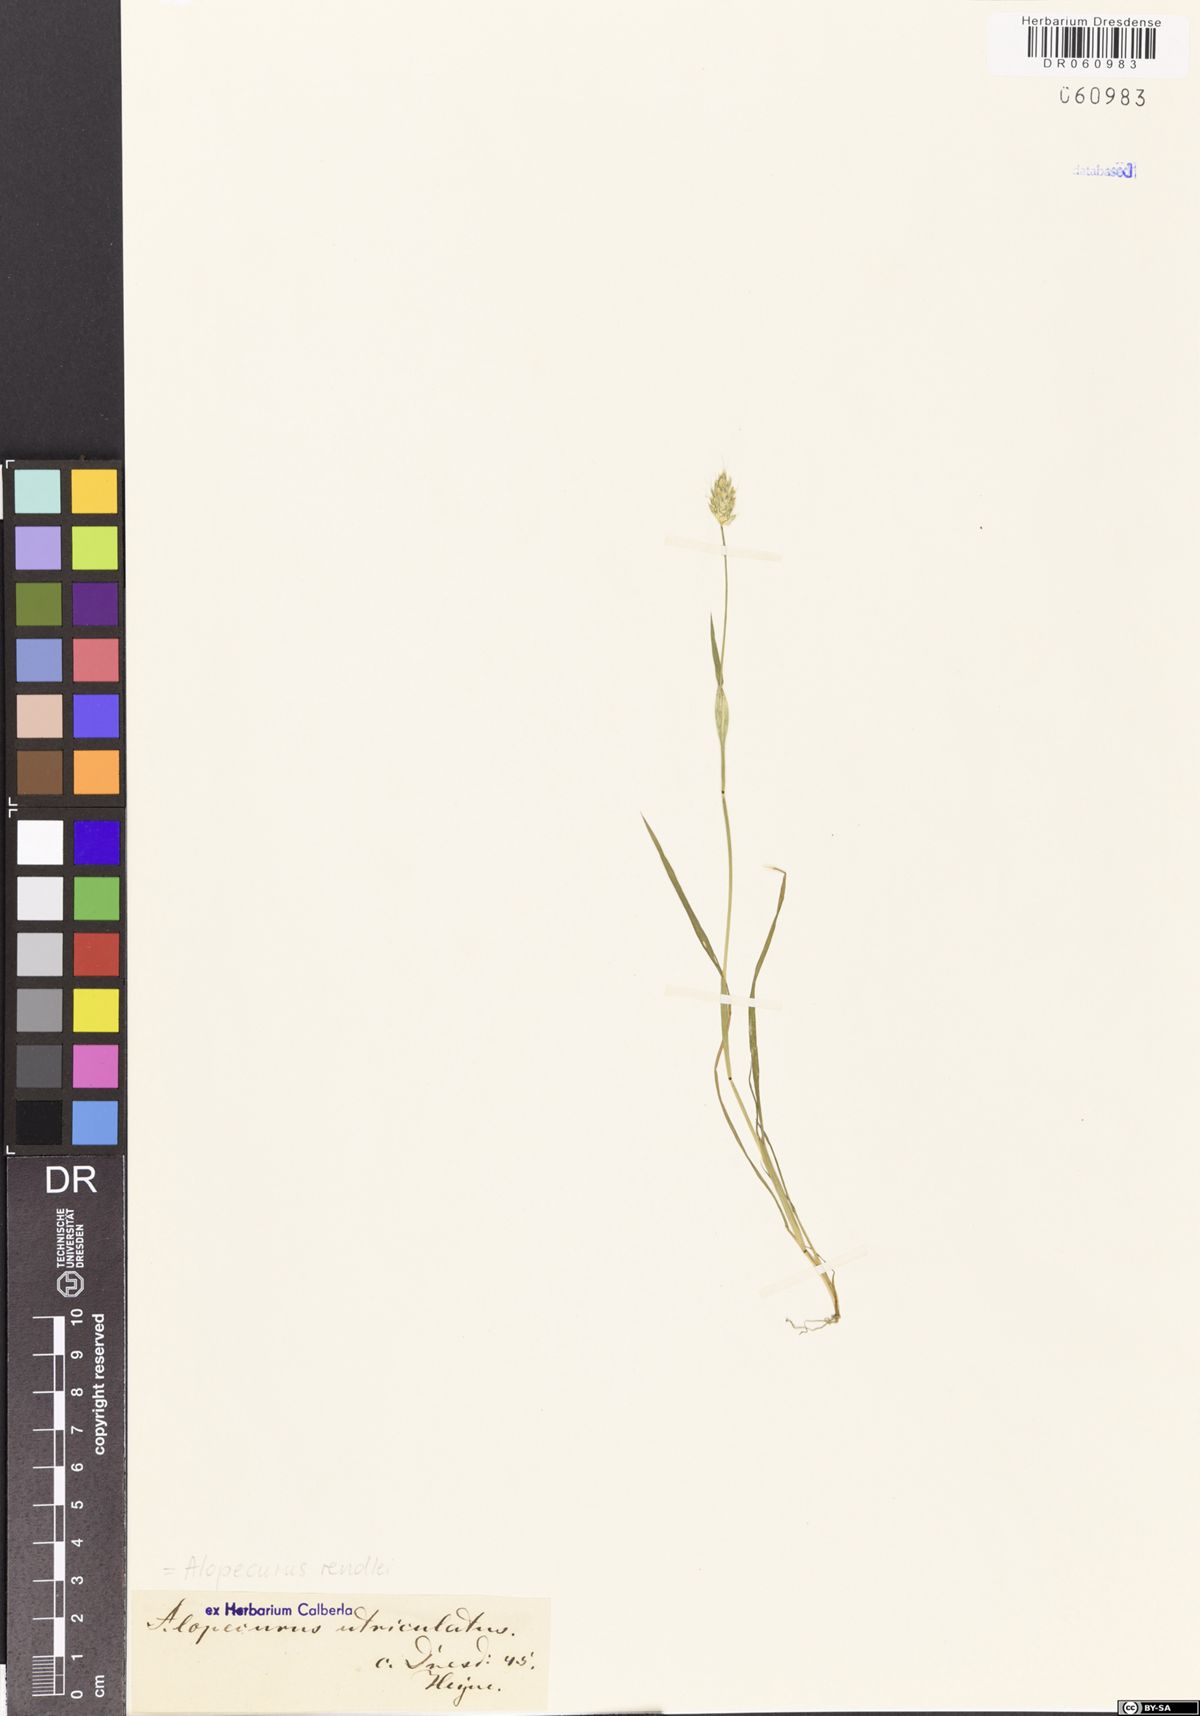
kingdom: Plantae
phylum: Tracheophyta
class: Liliopsida
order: Poales
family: Poaceae
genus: Alopecurus
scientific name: Alopecurus rendlei
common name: Rendle's meadow foxtail
